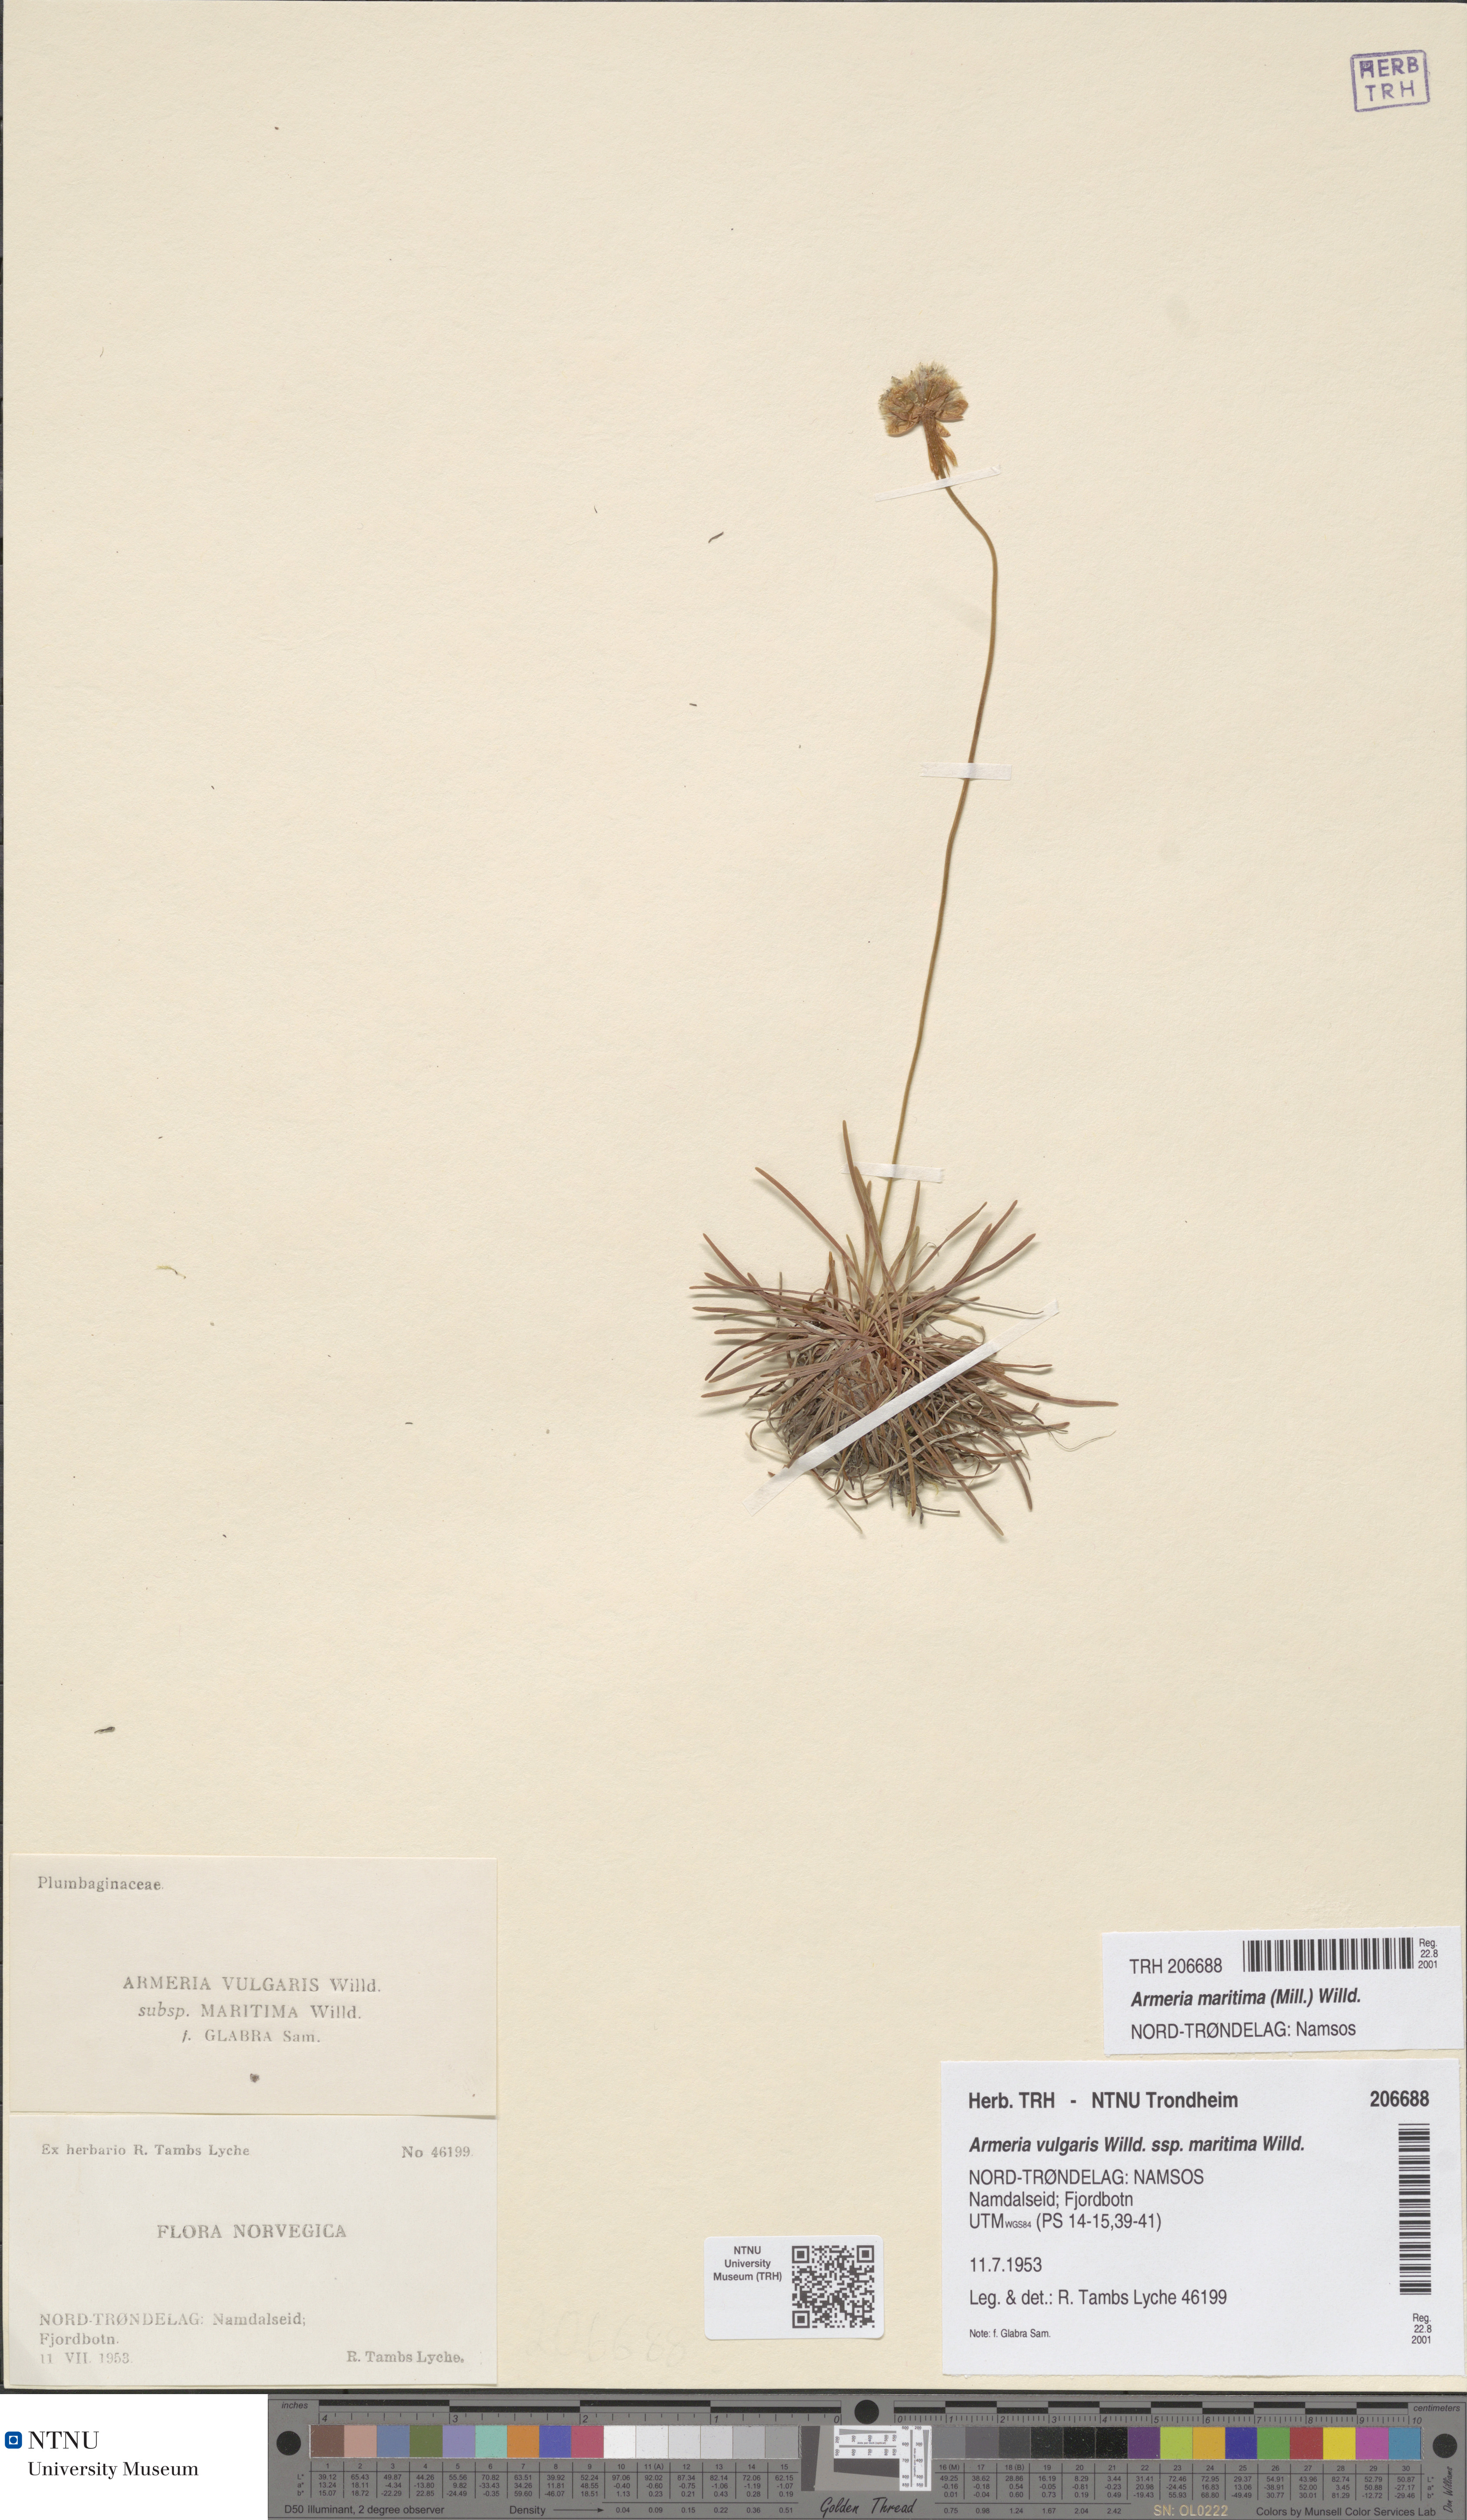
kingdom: Plantae
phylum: Tracheophyta
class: Magnoliopsida
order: Caryophyllales
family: Plumbaginaceae
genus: Armeria
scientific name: Armeria maritima
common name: Thrift
